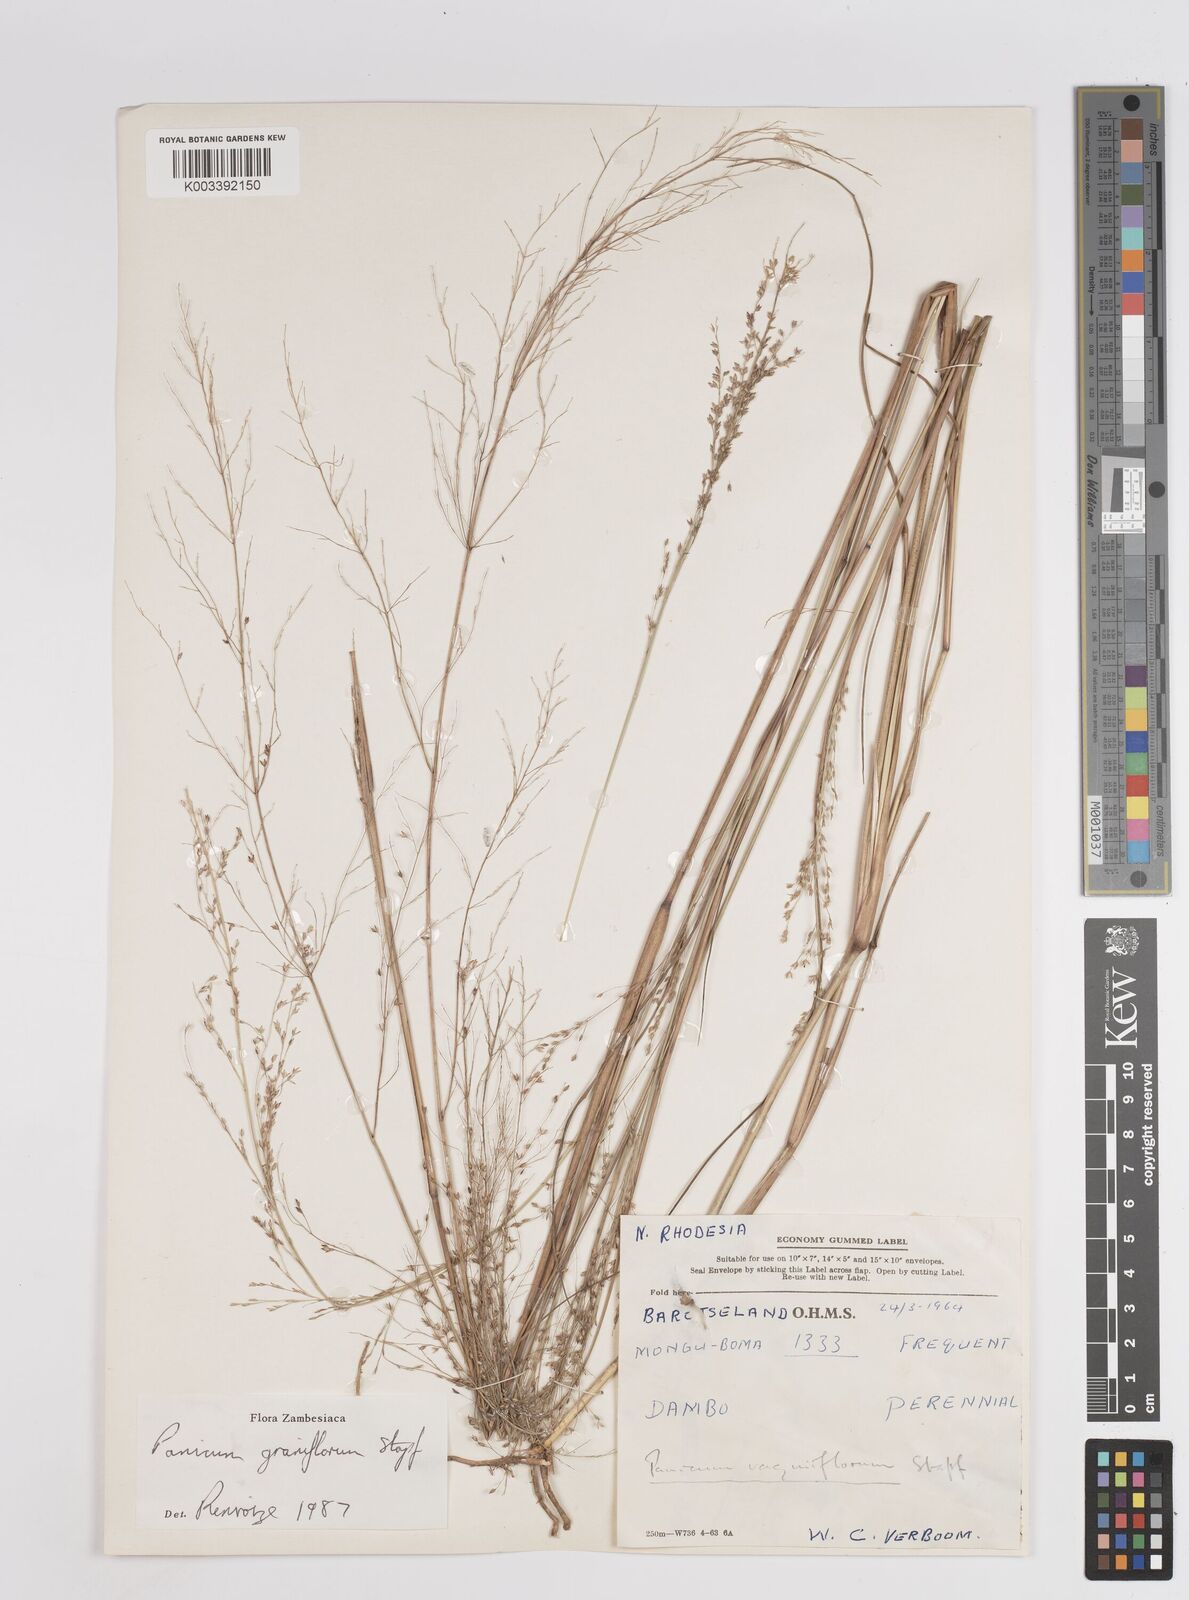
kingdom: Plantae
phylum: Tracheophyta
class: Liliopsida
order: Poales
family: Poaceae
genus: Panicum
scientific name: Panicum graniflorum
